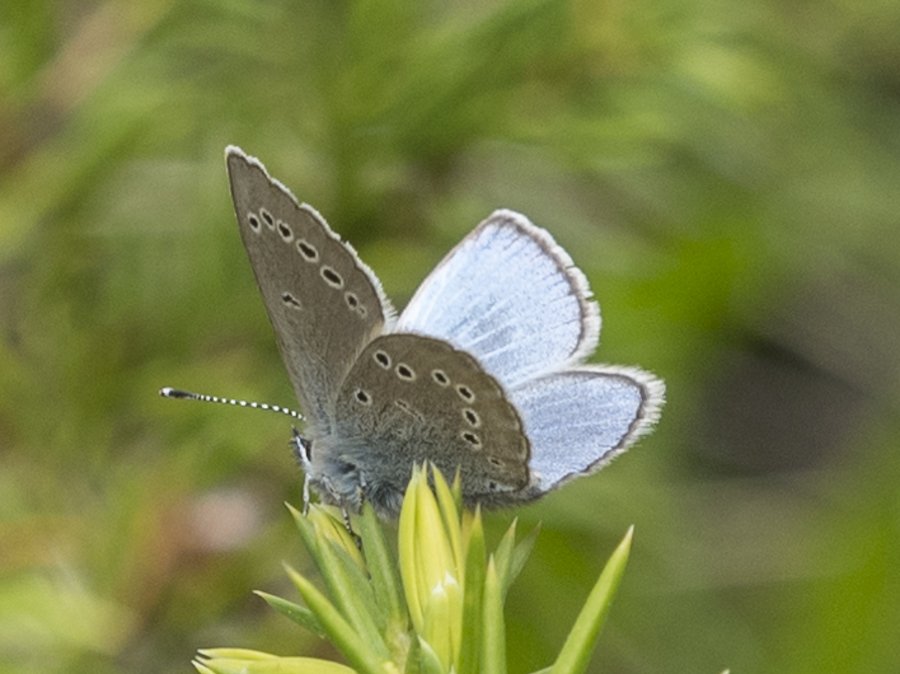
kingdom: Animalia
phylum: Arthropoda
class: Insecta
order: Lepidoptera
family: Lycaenidae
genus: Glaucopsyche
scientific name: Glaucopsyche lygdamus
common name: Silvery Blue
